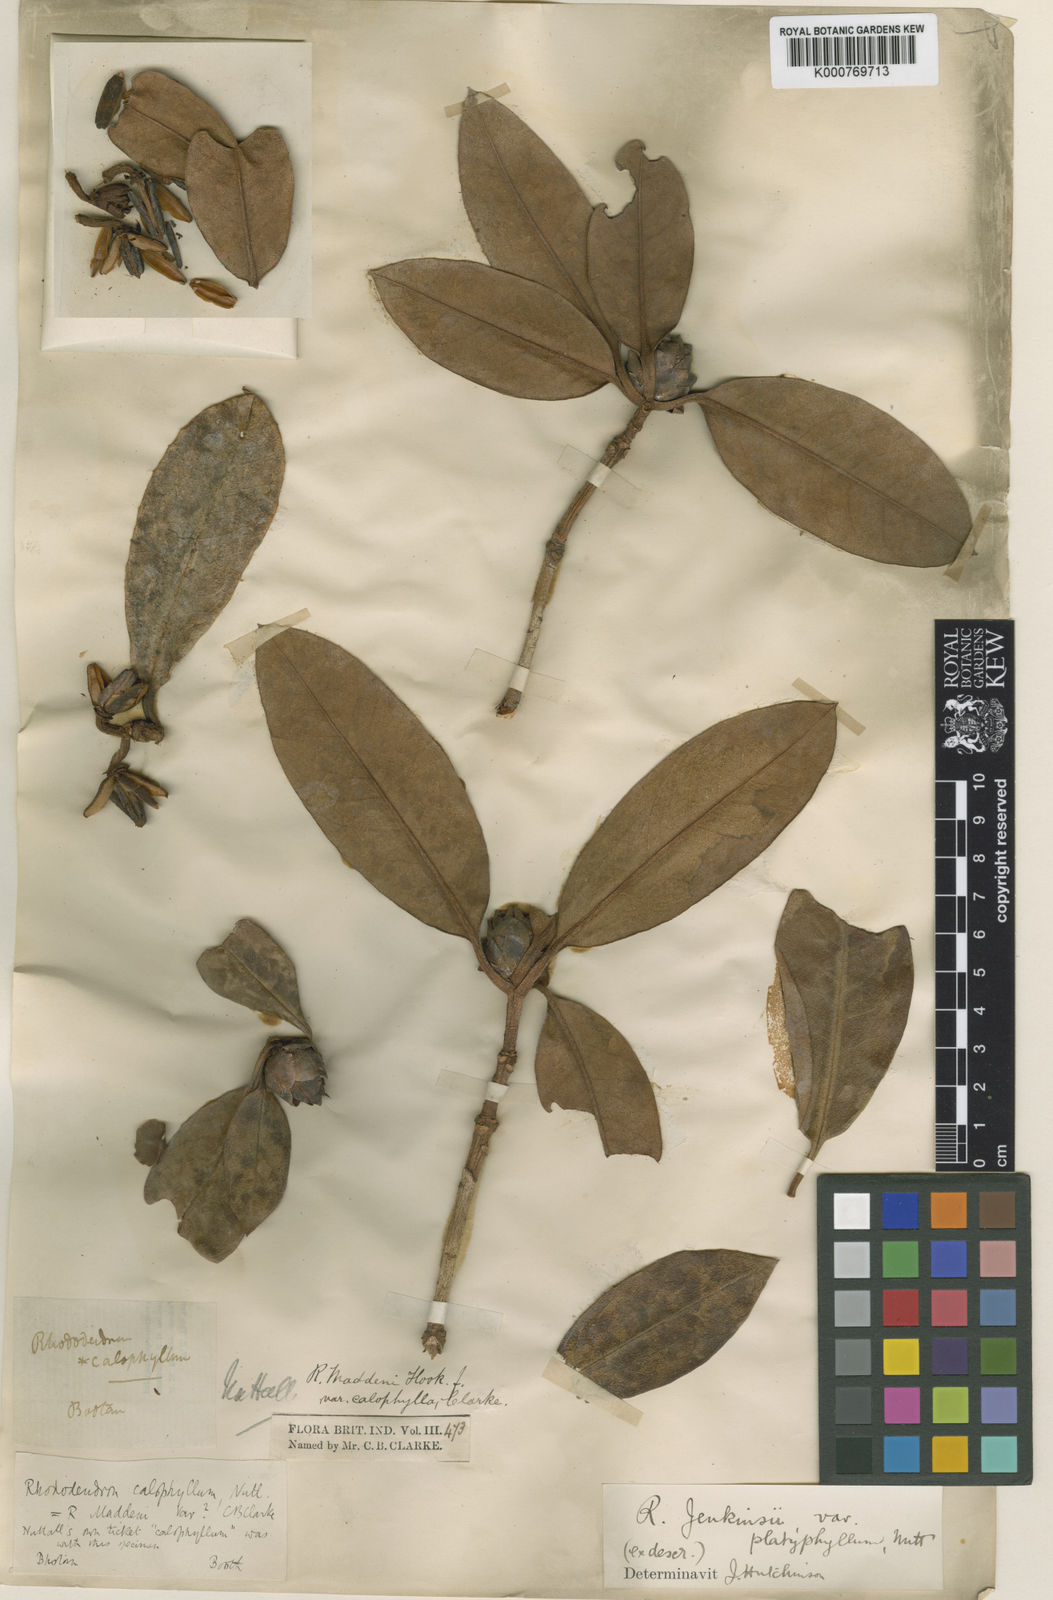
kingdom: Plantae
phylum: Tracheophyta
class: Magnoliopsida
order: Ericales
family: Ericaceae
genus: Rhododendron
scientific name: Rhododendron maddenii
